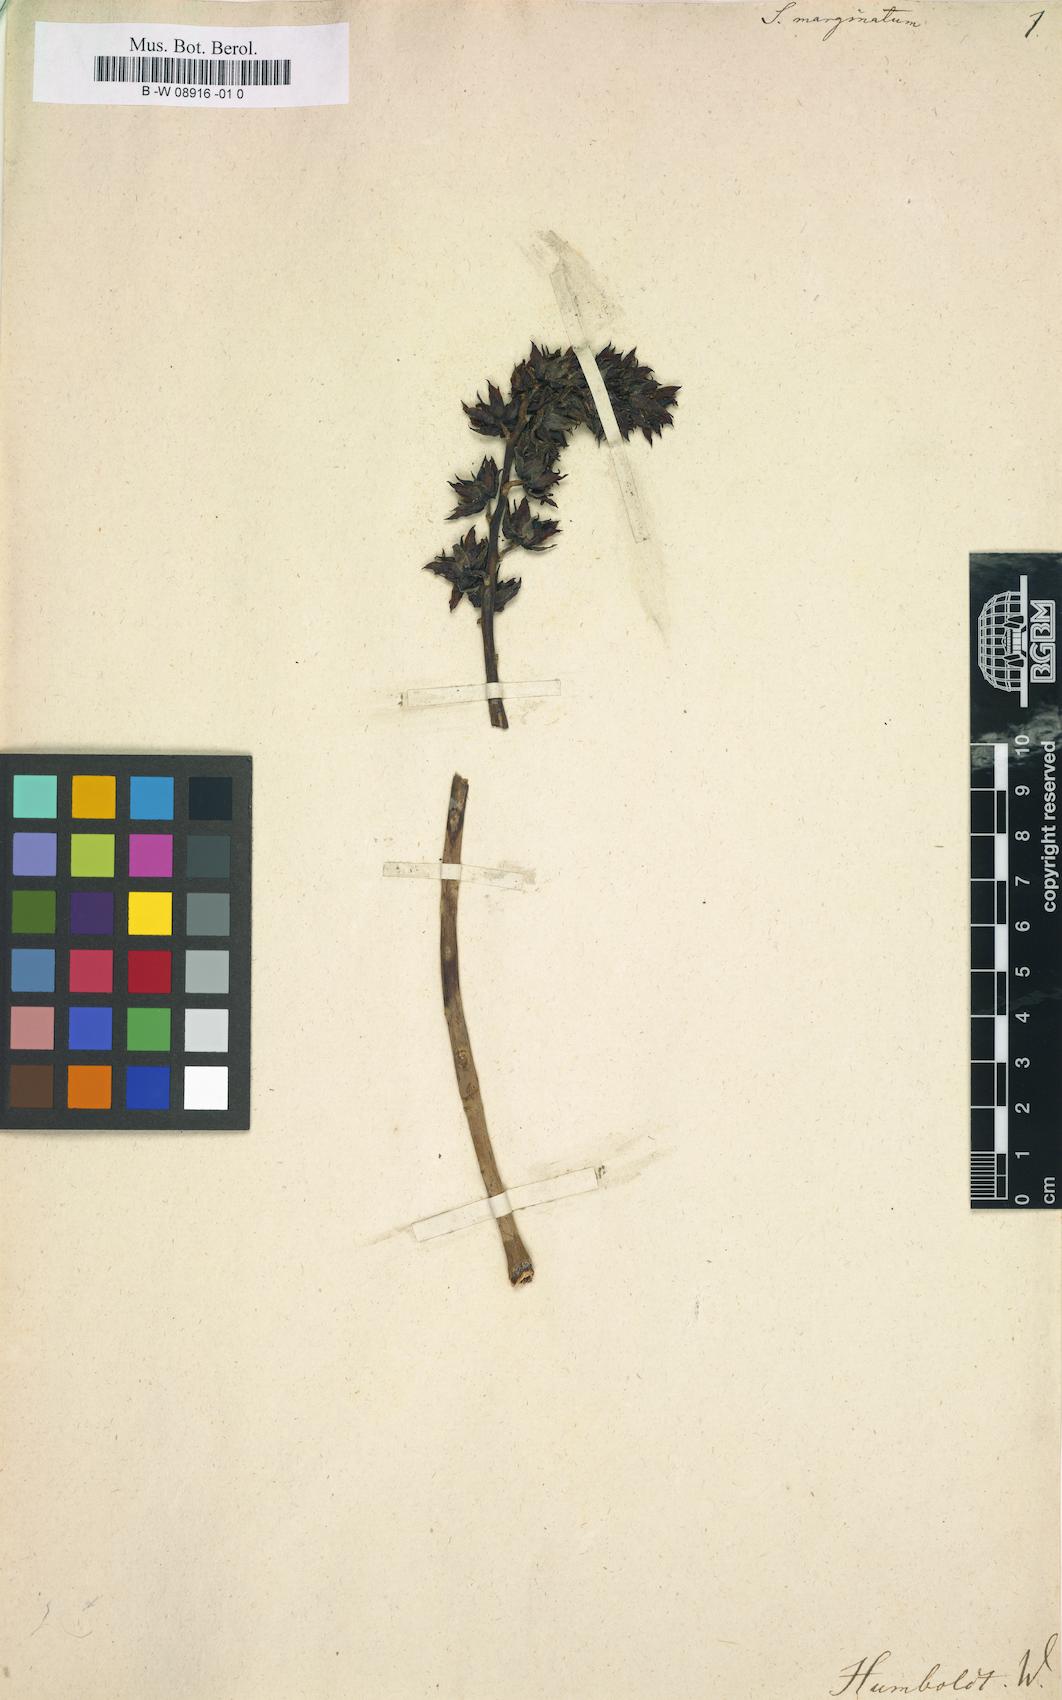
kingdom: Plantae
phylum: Tracheophyta
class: Magnoliopsida
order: Saxifragales
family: Crassulaceae
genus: Graptopetalum
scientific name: Graptopetalum marginatum
